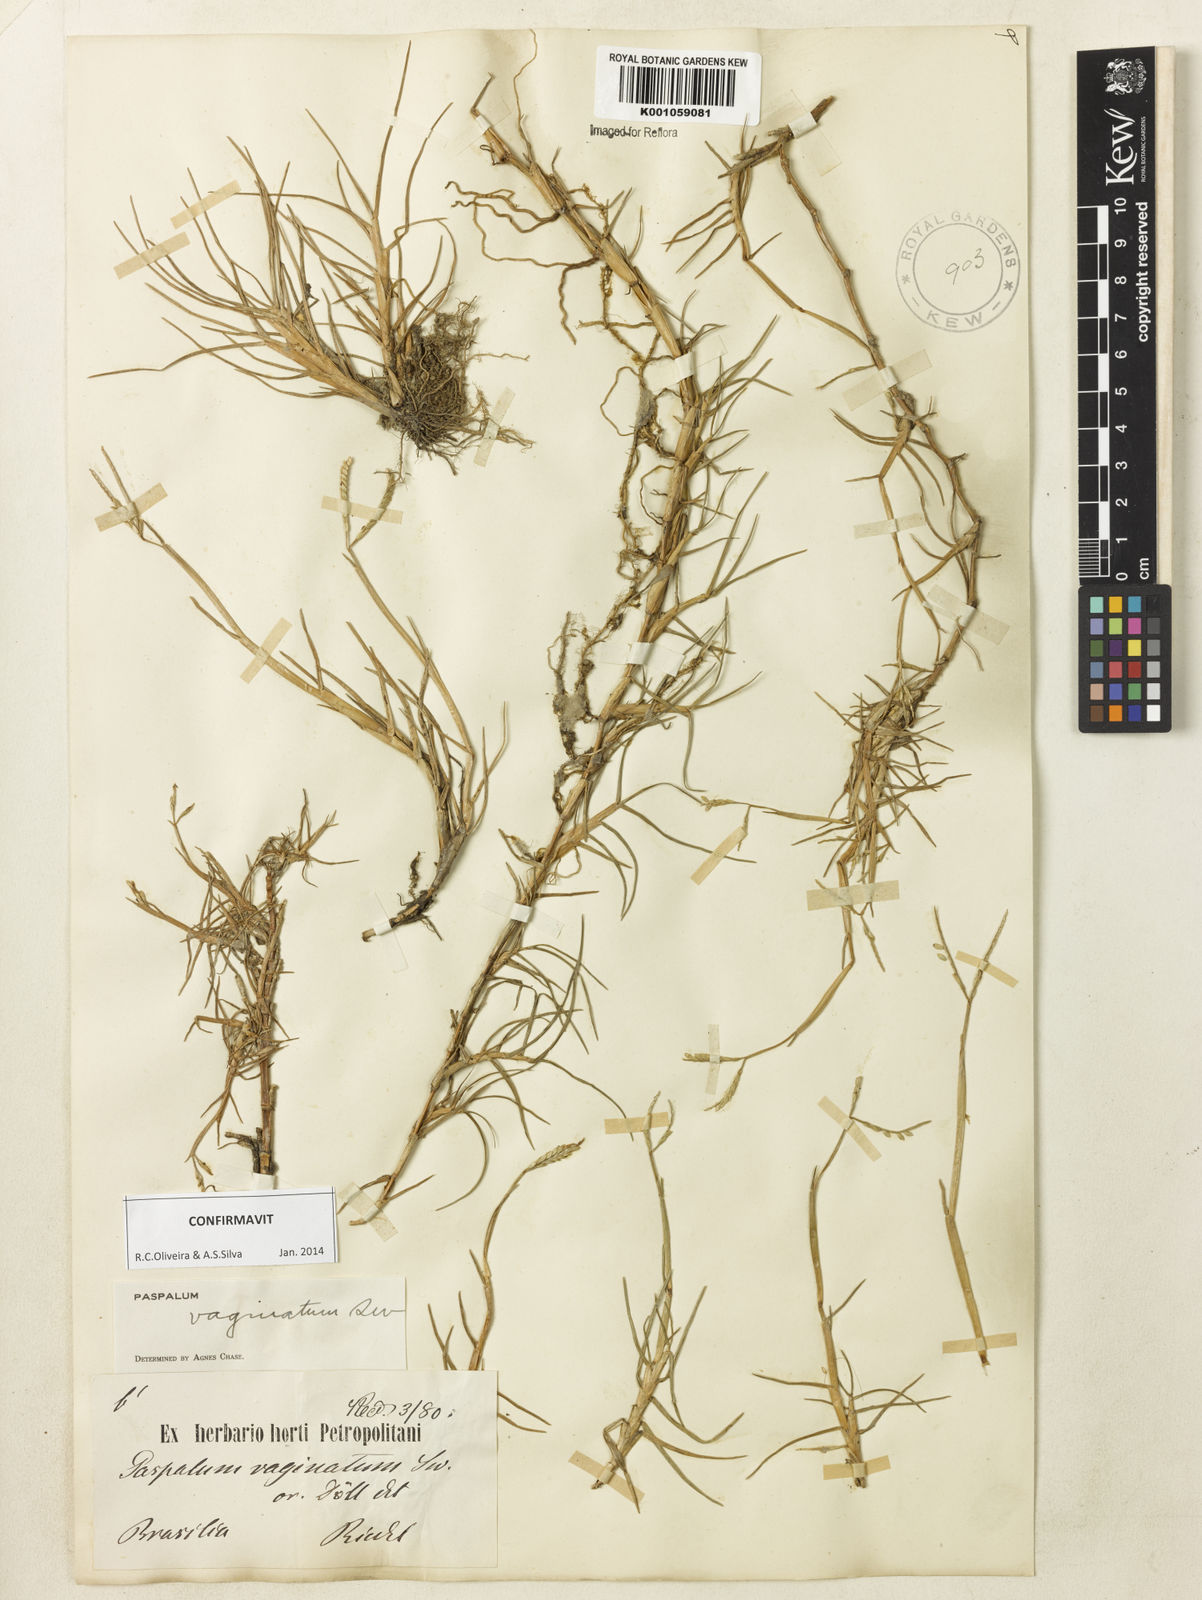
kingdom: Plantae
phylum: Tracheophyta
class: Liliopsida
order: Poales
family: Poaceae
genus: Paspalum
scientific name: Paspalum vaginatum
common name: Seashore paspalum
